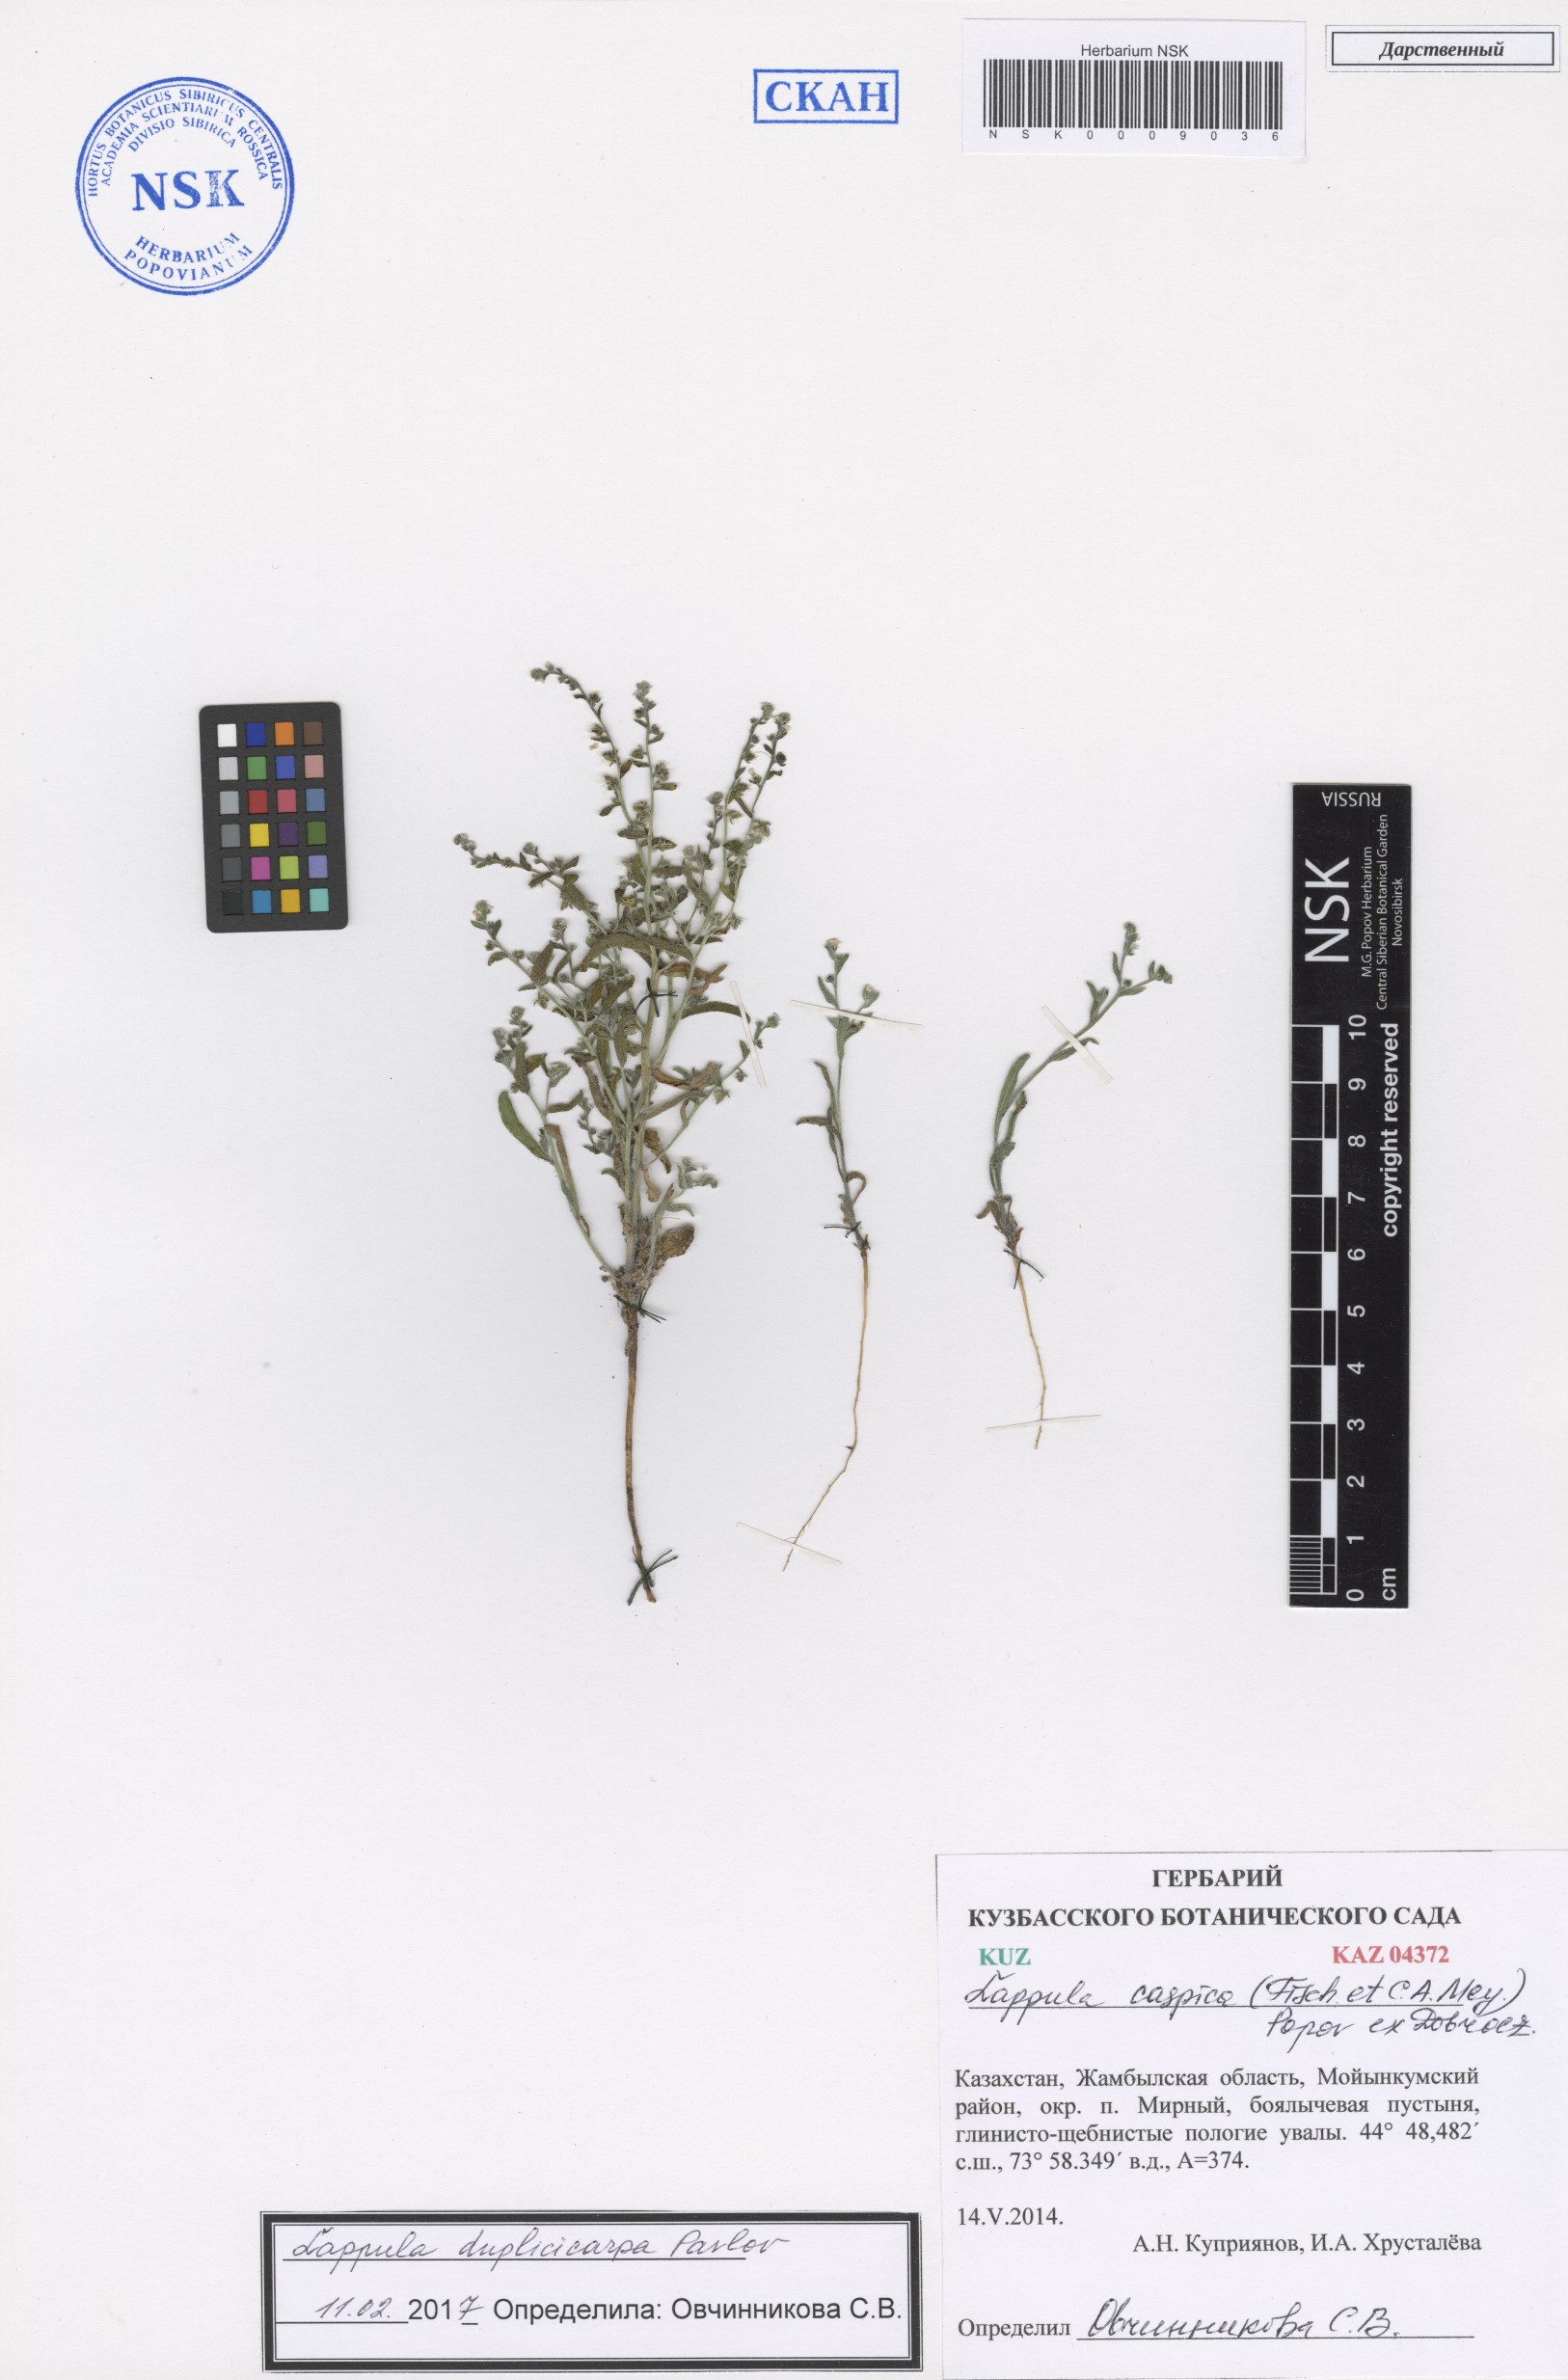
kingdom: Plantae
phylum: Tracheophyta
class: Magnoliopsida
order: Boraginales
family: Boraginaceae
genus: Lappula
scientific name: Lappula duplicicarpa
